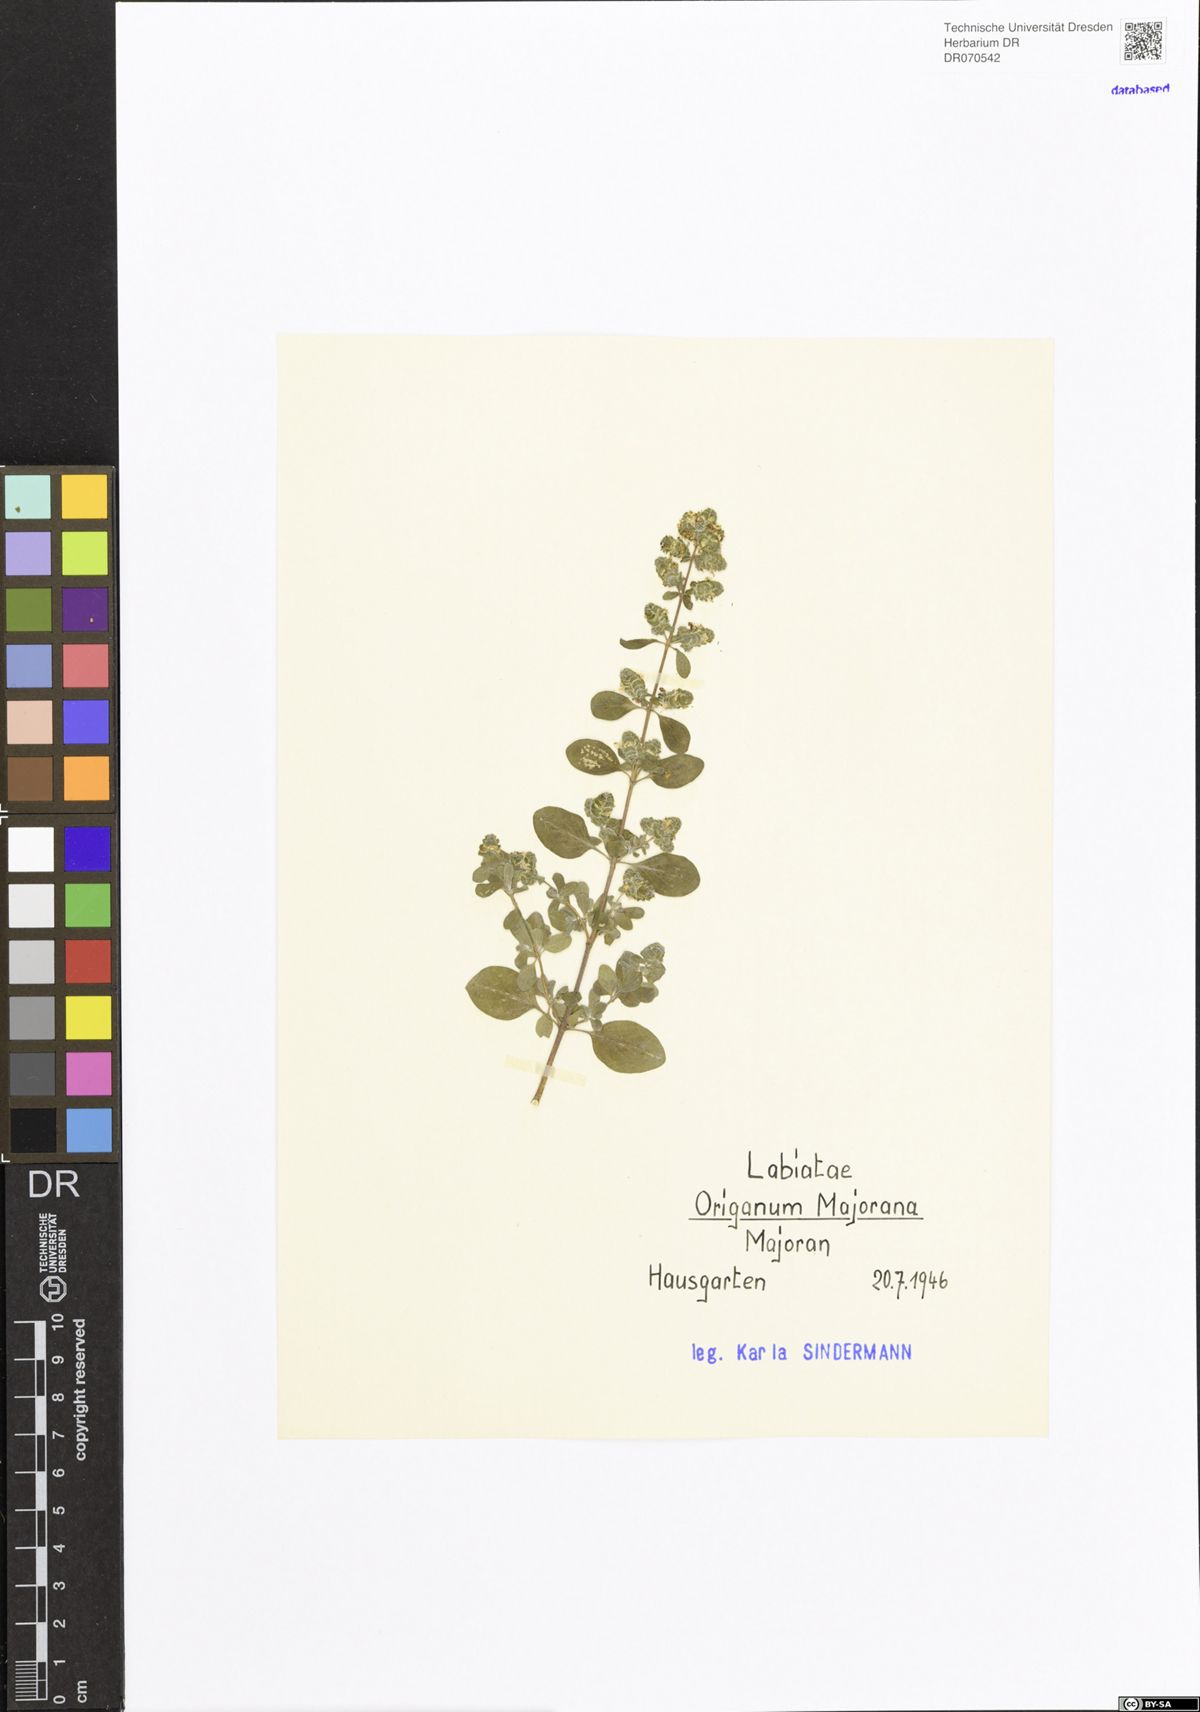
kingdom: Plantae
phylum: Tracheophyta
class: Magnoliopsida
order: Lamiales
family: Lamiaceae
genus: Origanum
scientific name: Origanum majorana
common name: Sweet marjoram
